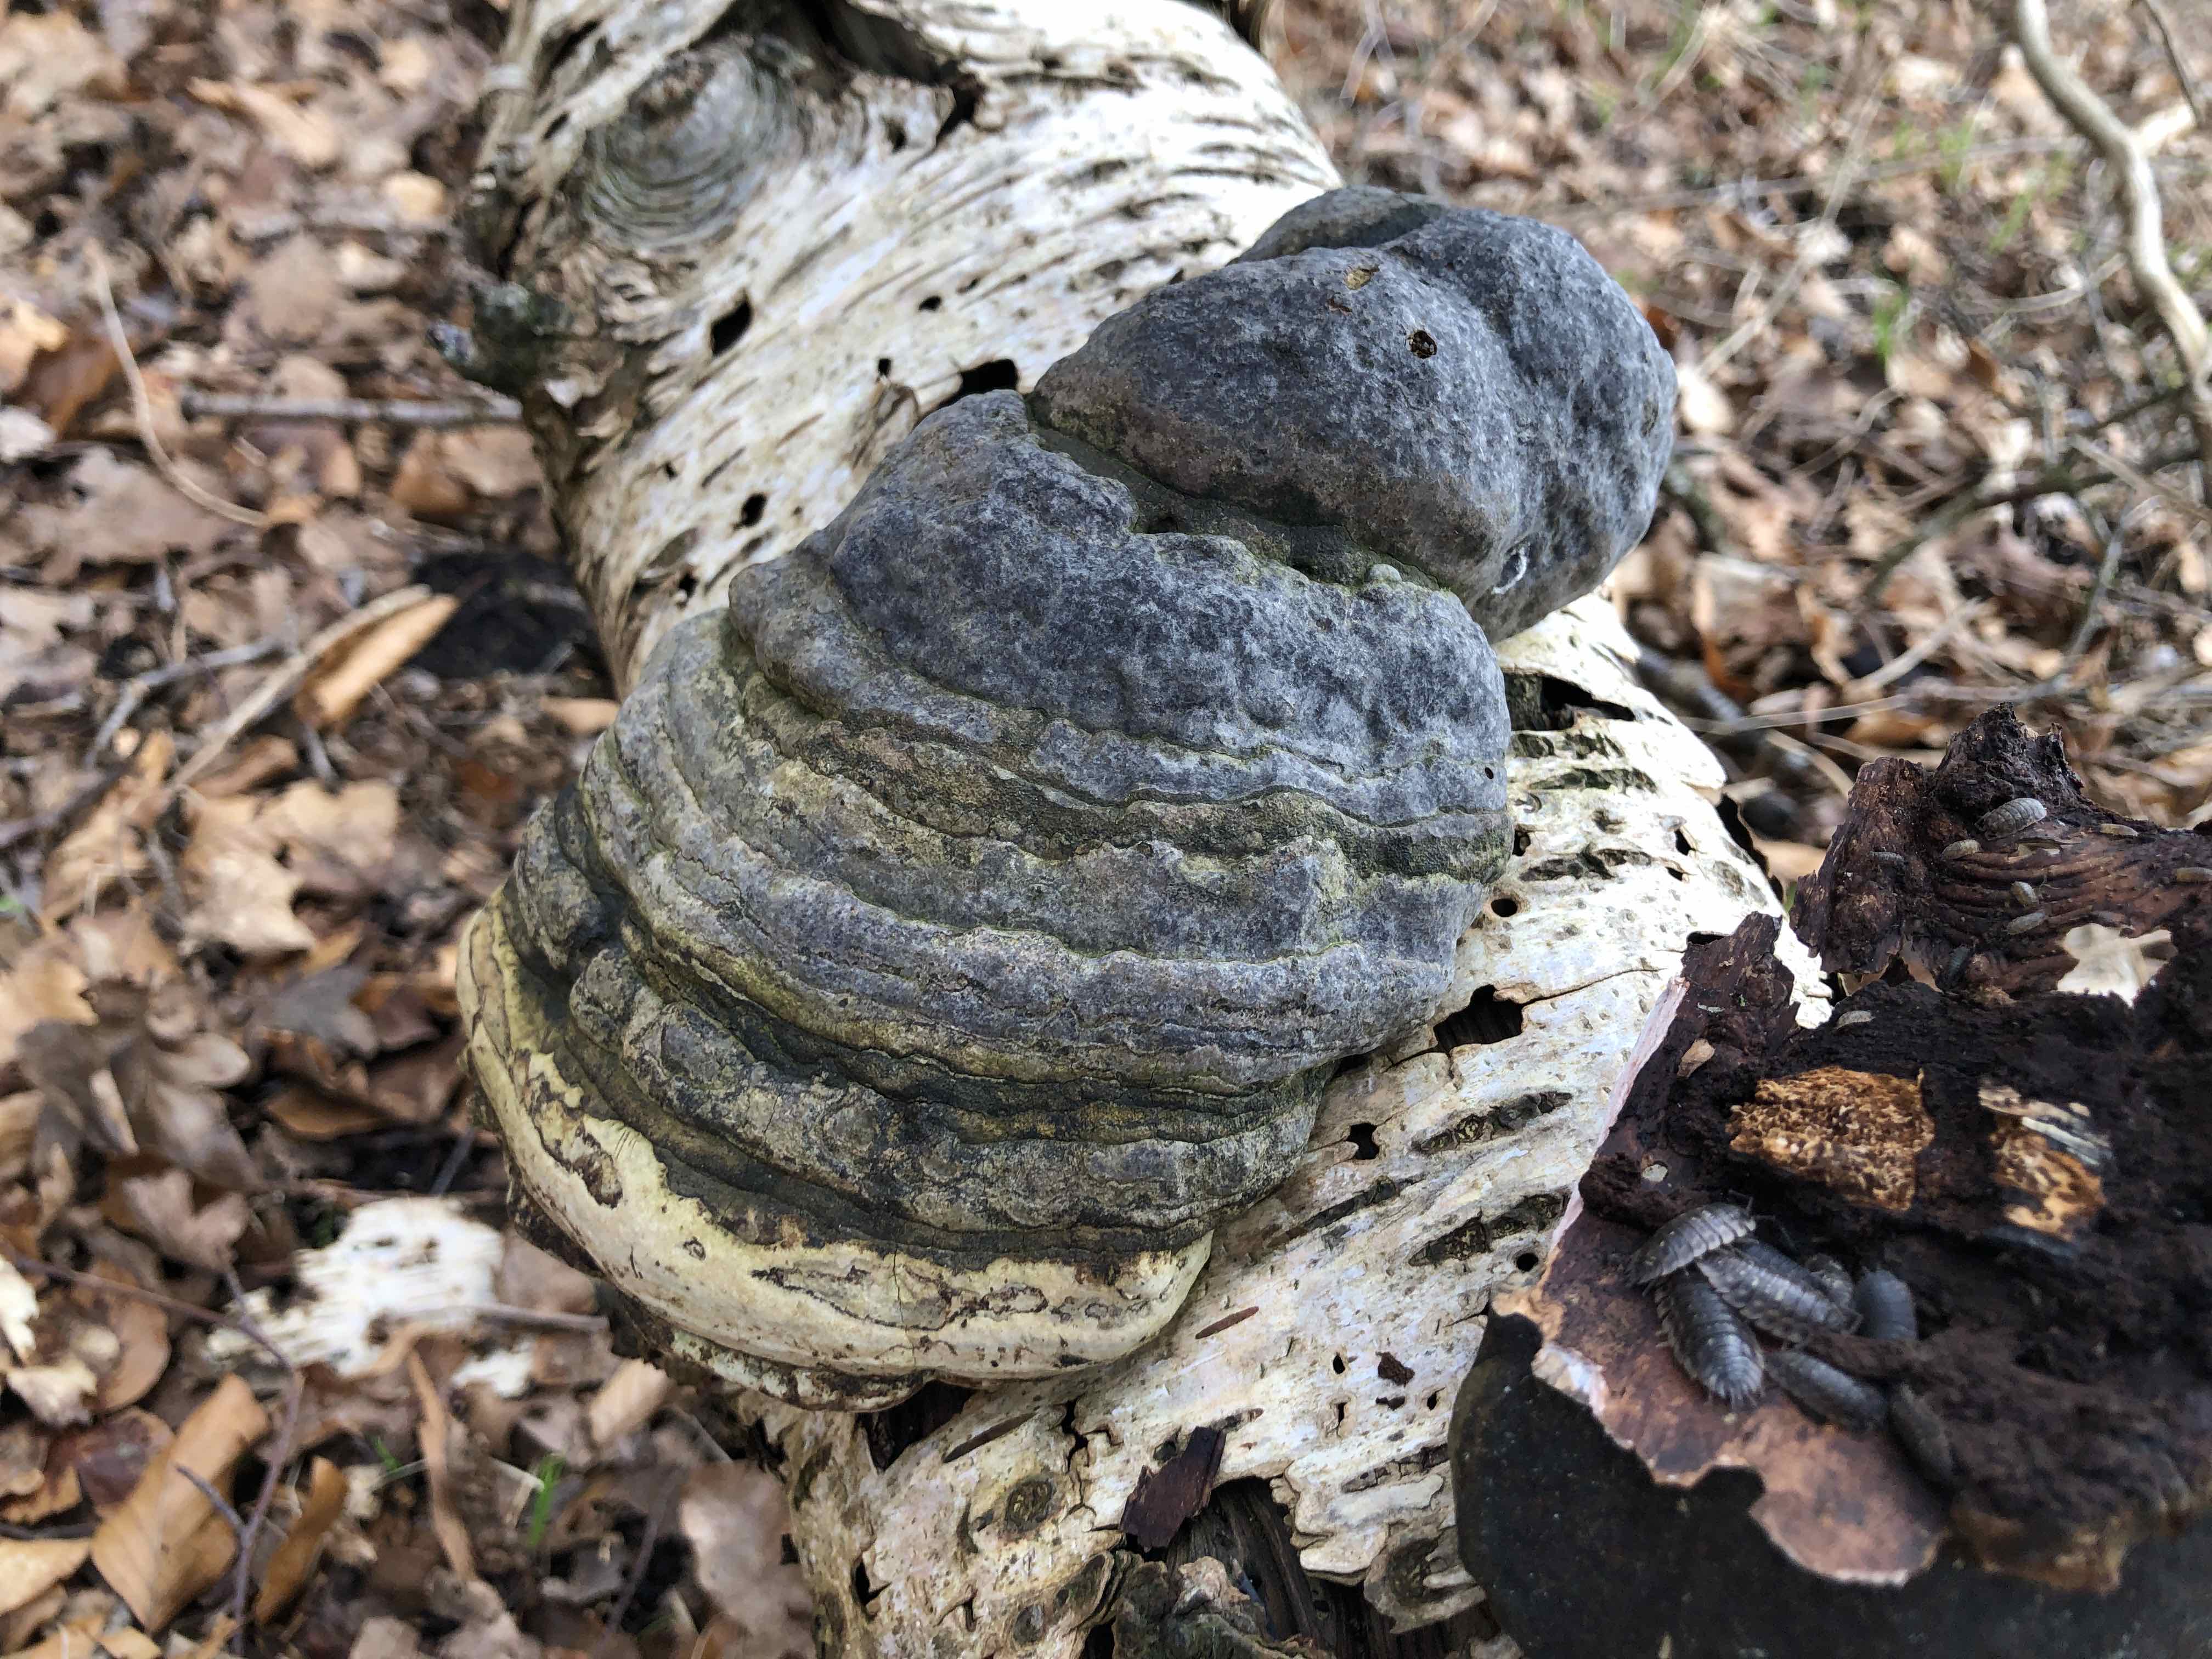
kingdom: Fungi
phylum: Basidiomycota
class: Agaricomycetes
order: Polyporales
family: Polyporaceae
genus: Fomes
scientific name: Fomes fomentarius
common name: tøndersvamp
